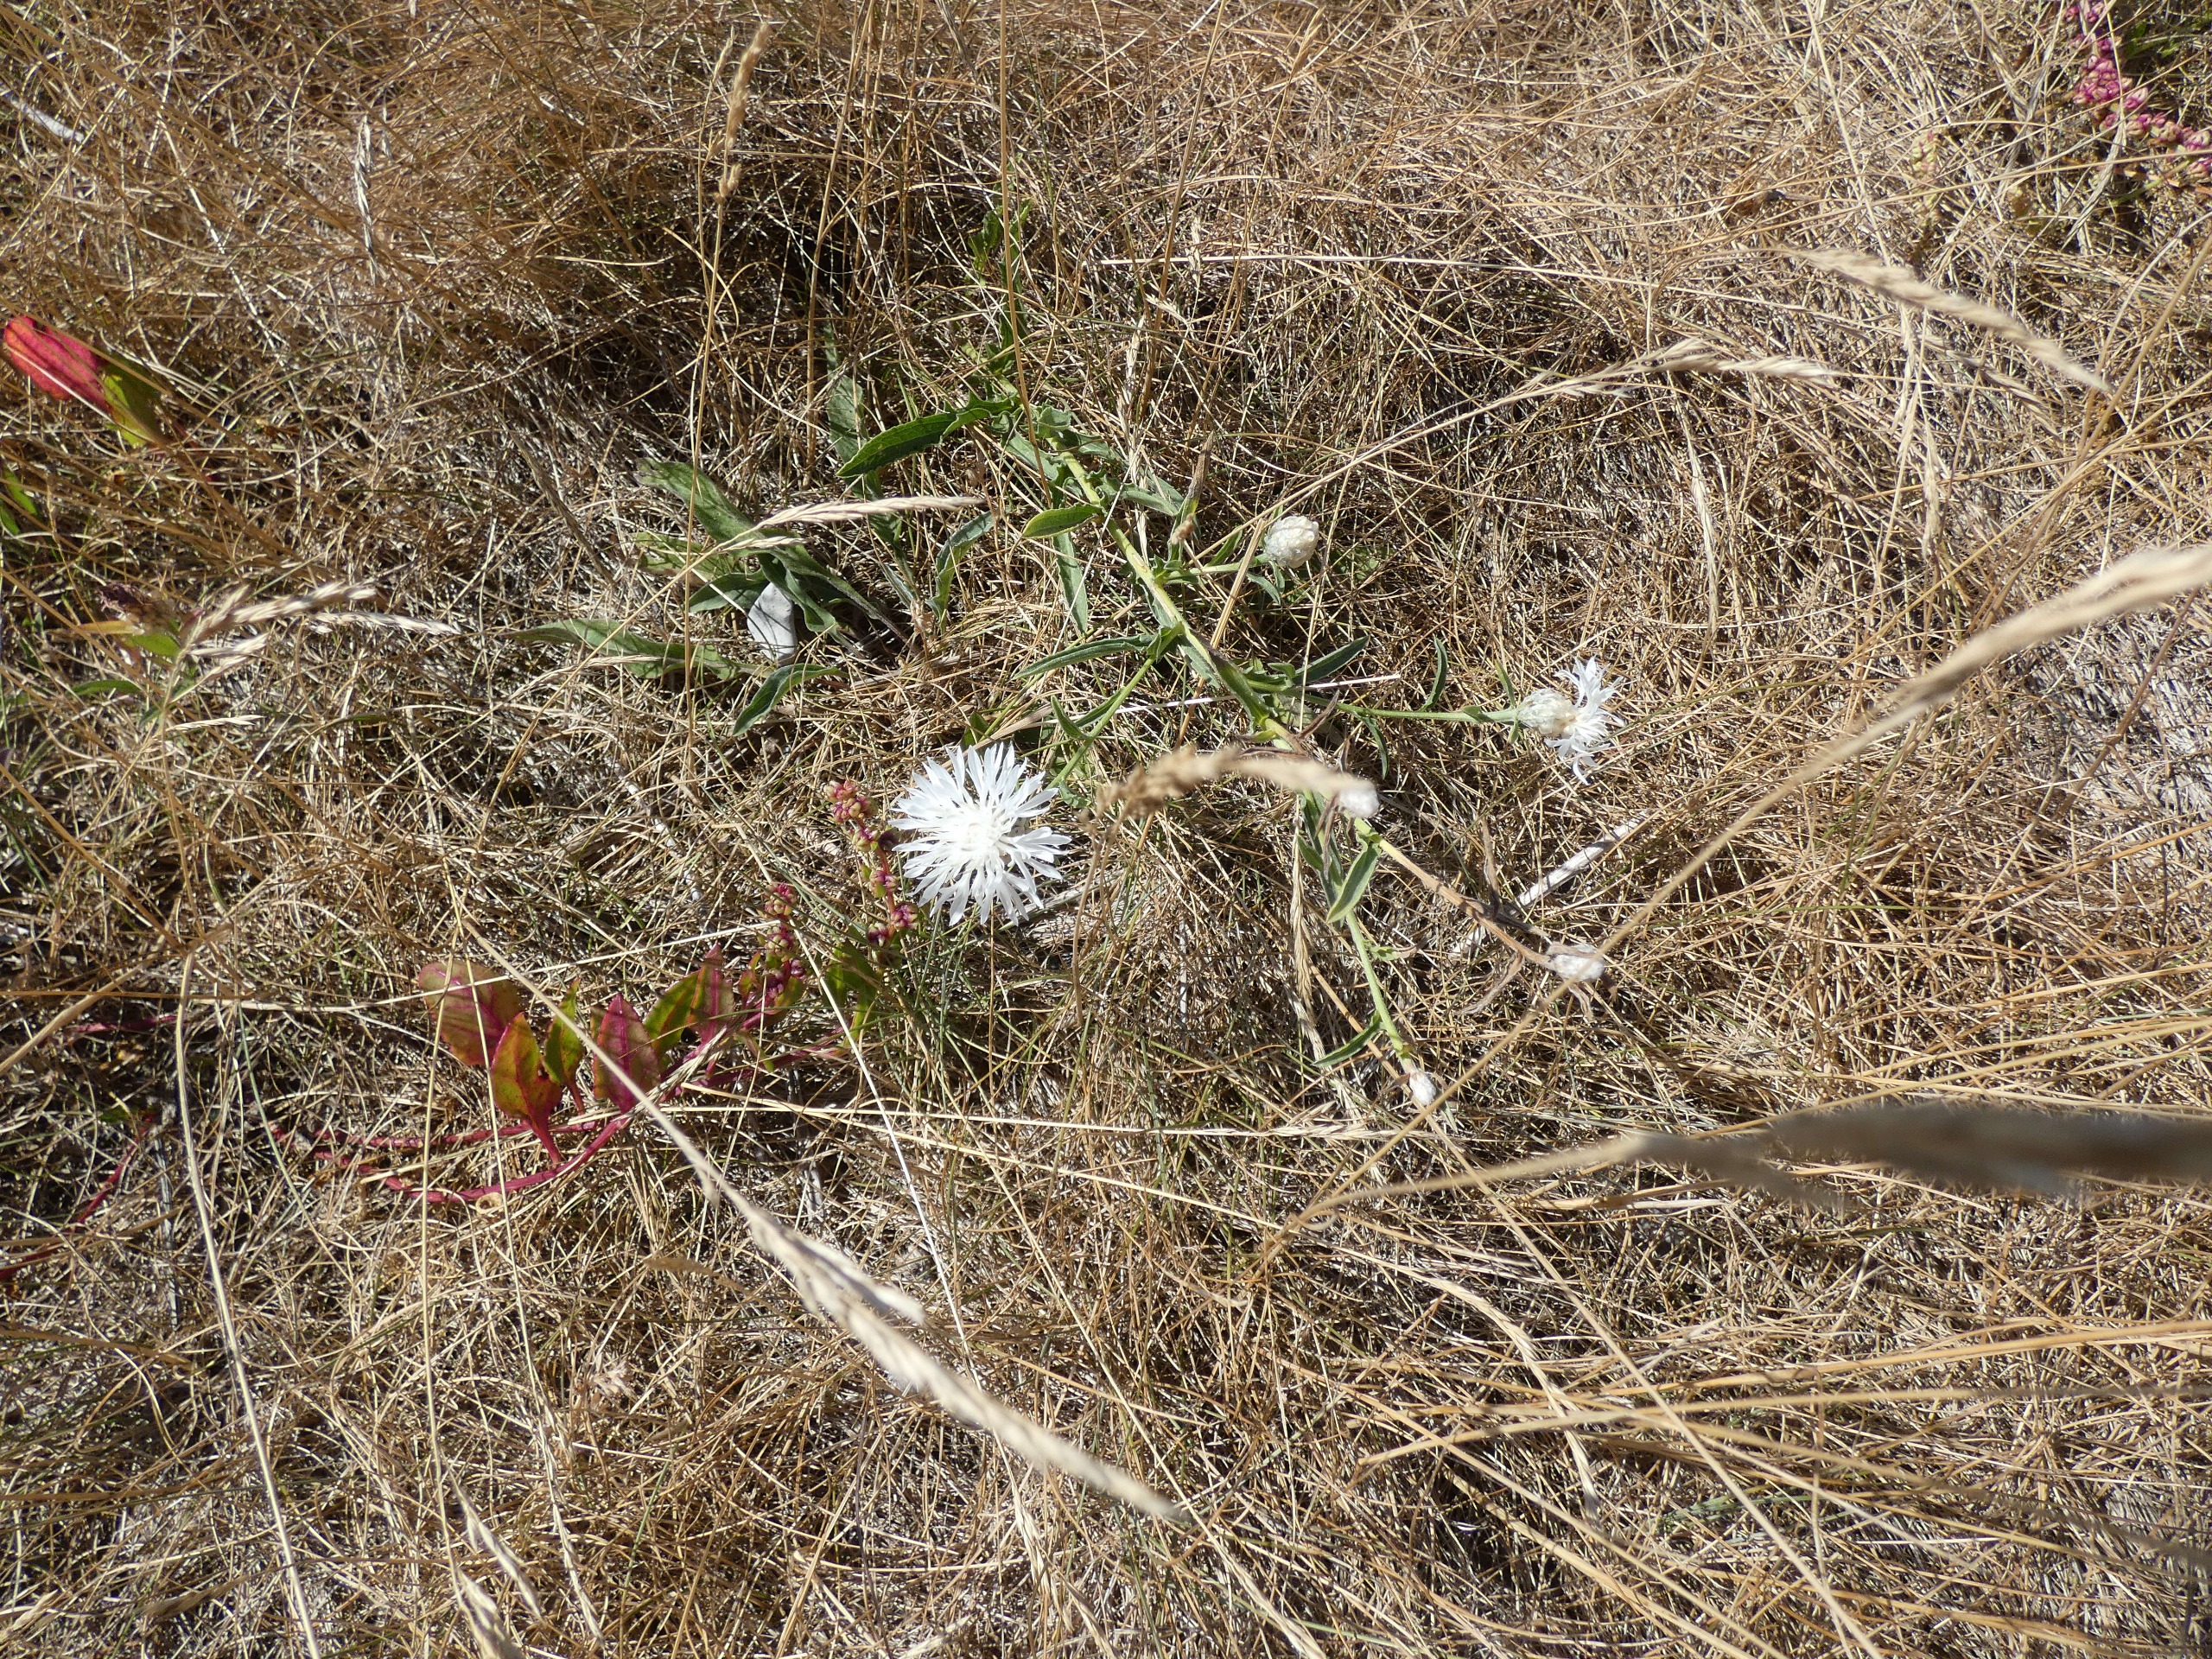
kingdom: Plantae
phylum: Tracheophyta
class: Magnoliopsida
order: Asterales
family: Asteraceae
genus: Centaurea
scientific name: Centaurea jacea
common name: Almindelig knopurt
